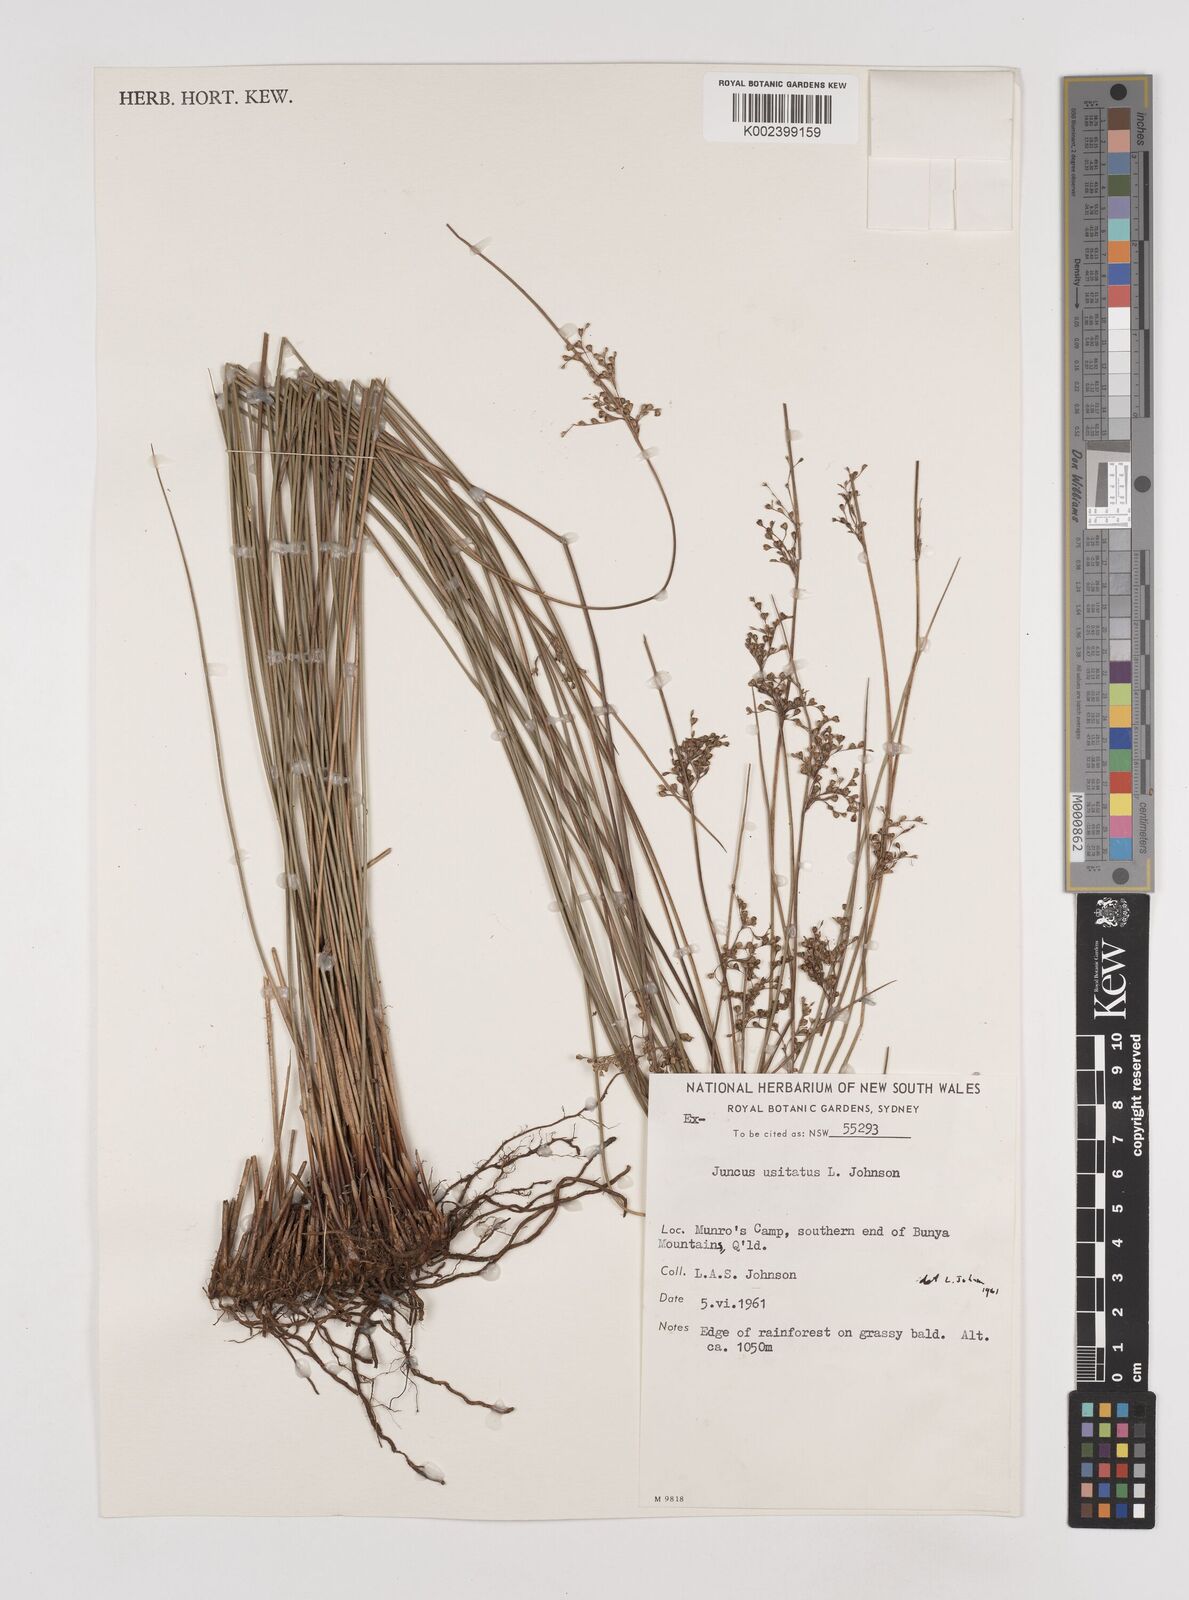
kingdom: Plantae
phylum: Tracheophyta
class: Liliopsida
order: Poales
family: Juncaceae
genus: Juncus
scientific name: Juncus usitatus
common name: Rush
